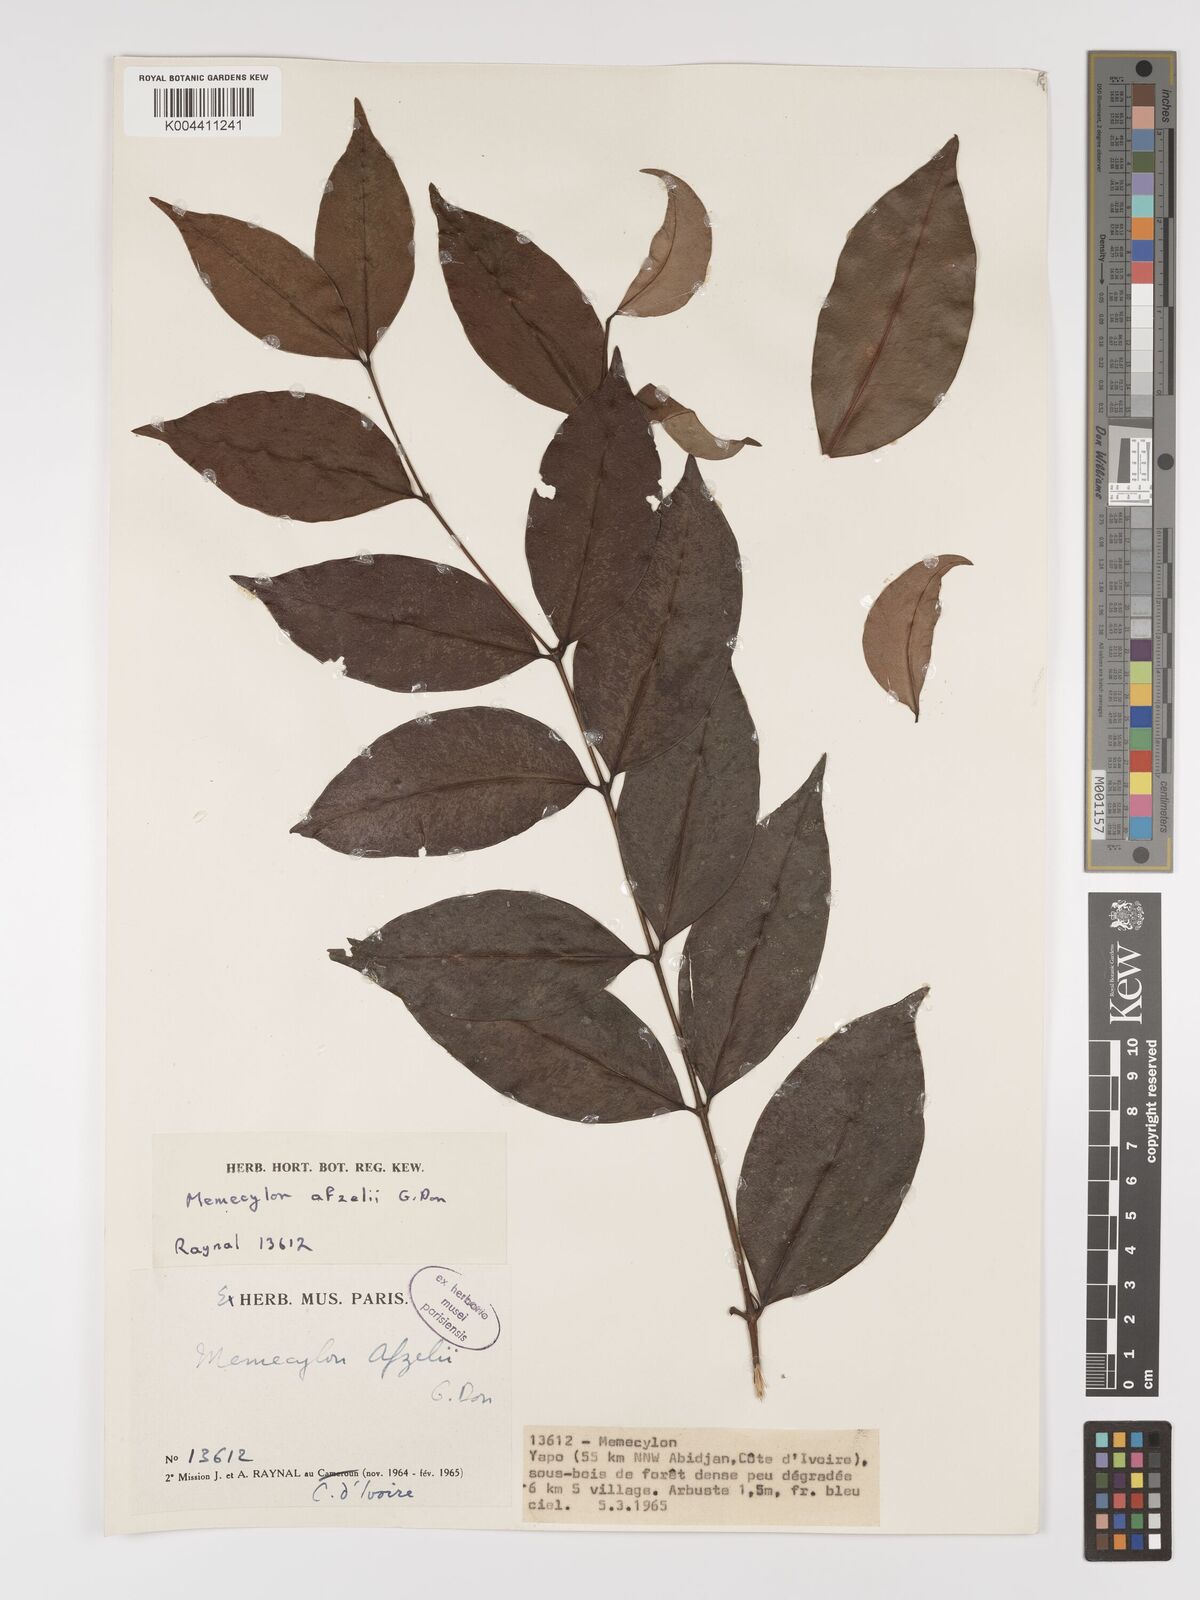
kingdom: Plantae
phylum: Tracheophyta
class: Magnoliopsida
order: Myrtales
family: Melastomataceae
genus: Memecylon
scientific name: Memecylon afzelii
